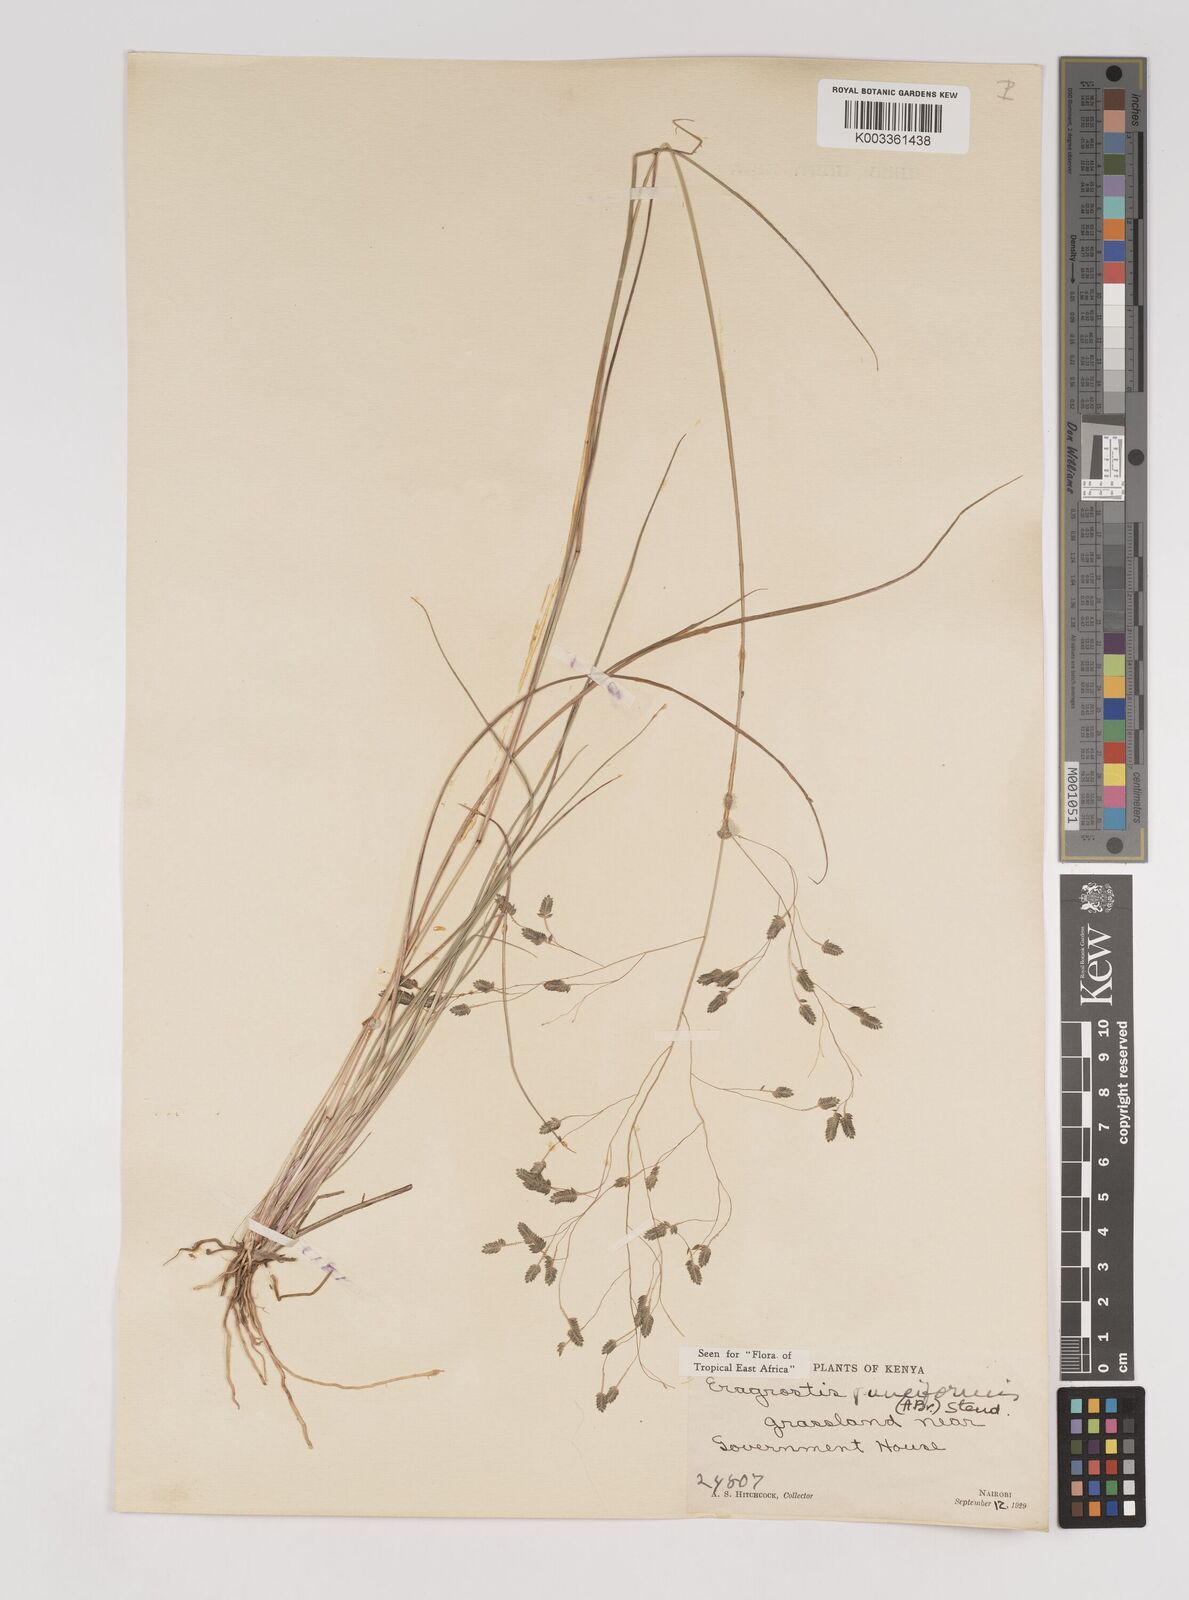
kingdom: Plantae
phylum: Tracheophyta
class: Liliopsida
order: Poales
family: Poaceae
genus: Eragrostis
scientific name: Eragrostis paniciformis
